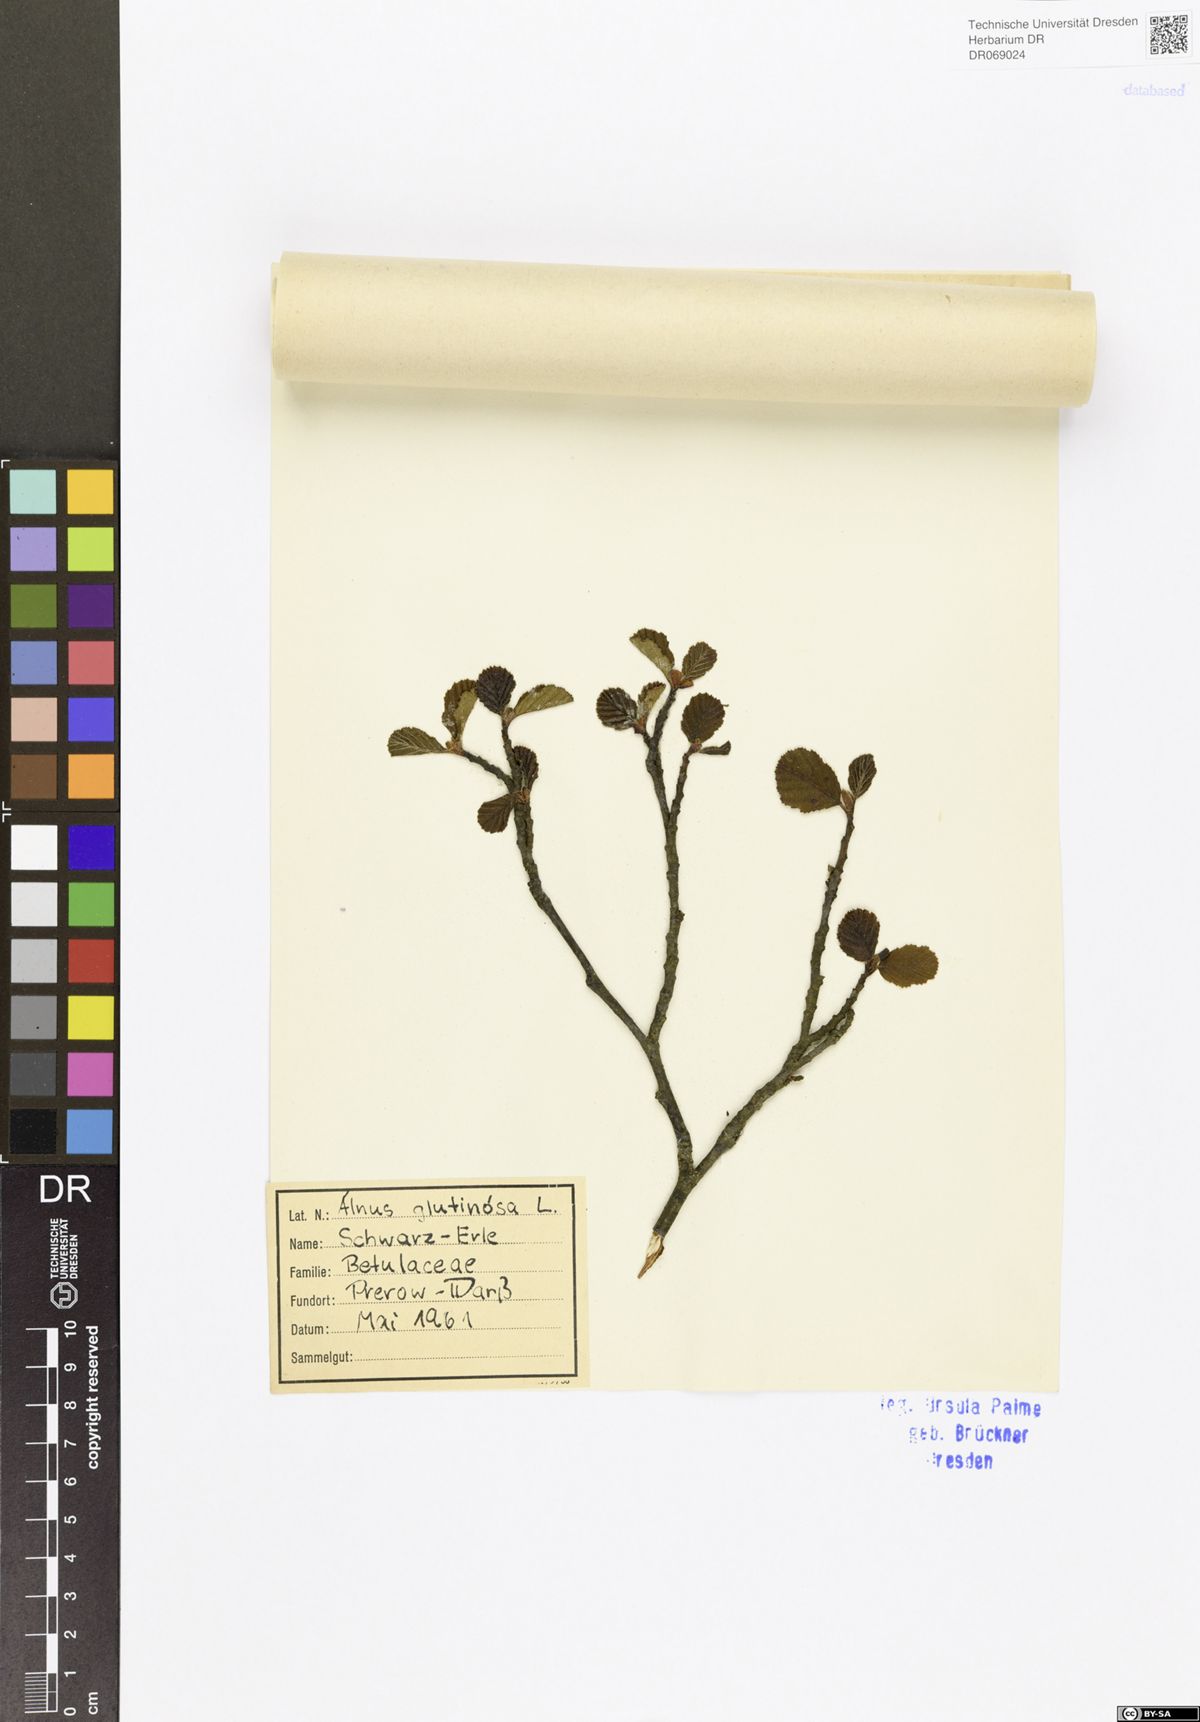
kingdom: Plantae
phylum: Tracheophyta
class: Magnoliopsida
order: Fagales
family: Betulaceae
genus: Alnus
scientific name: Alnus glutinosa
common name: Black alder
